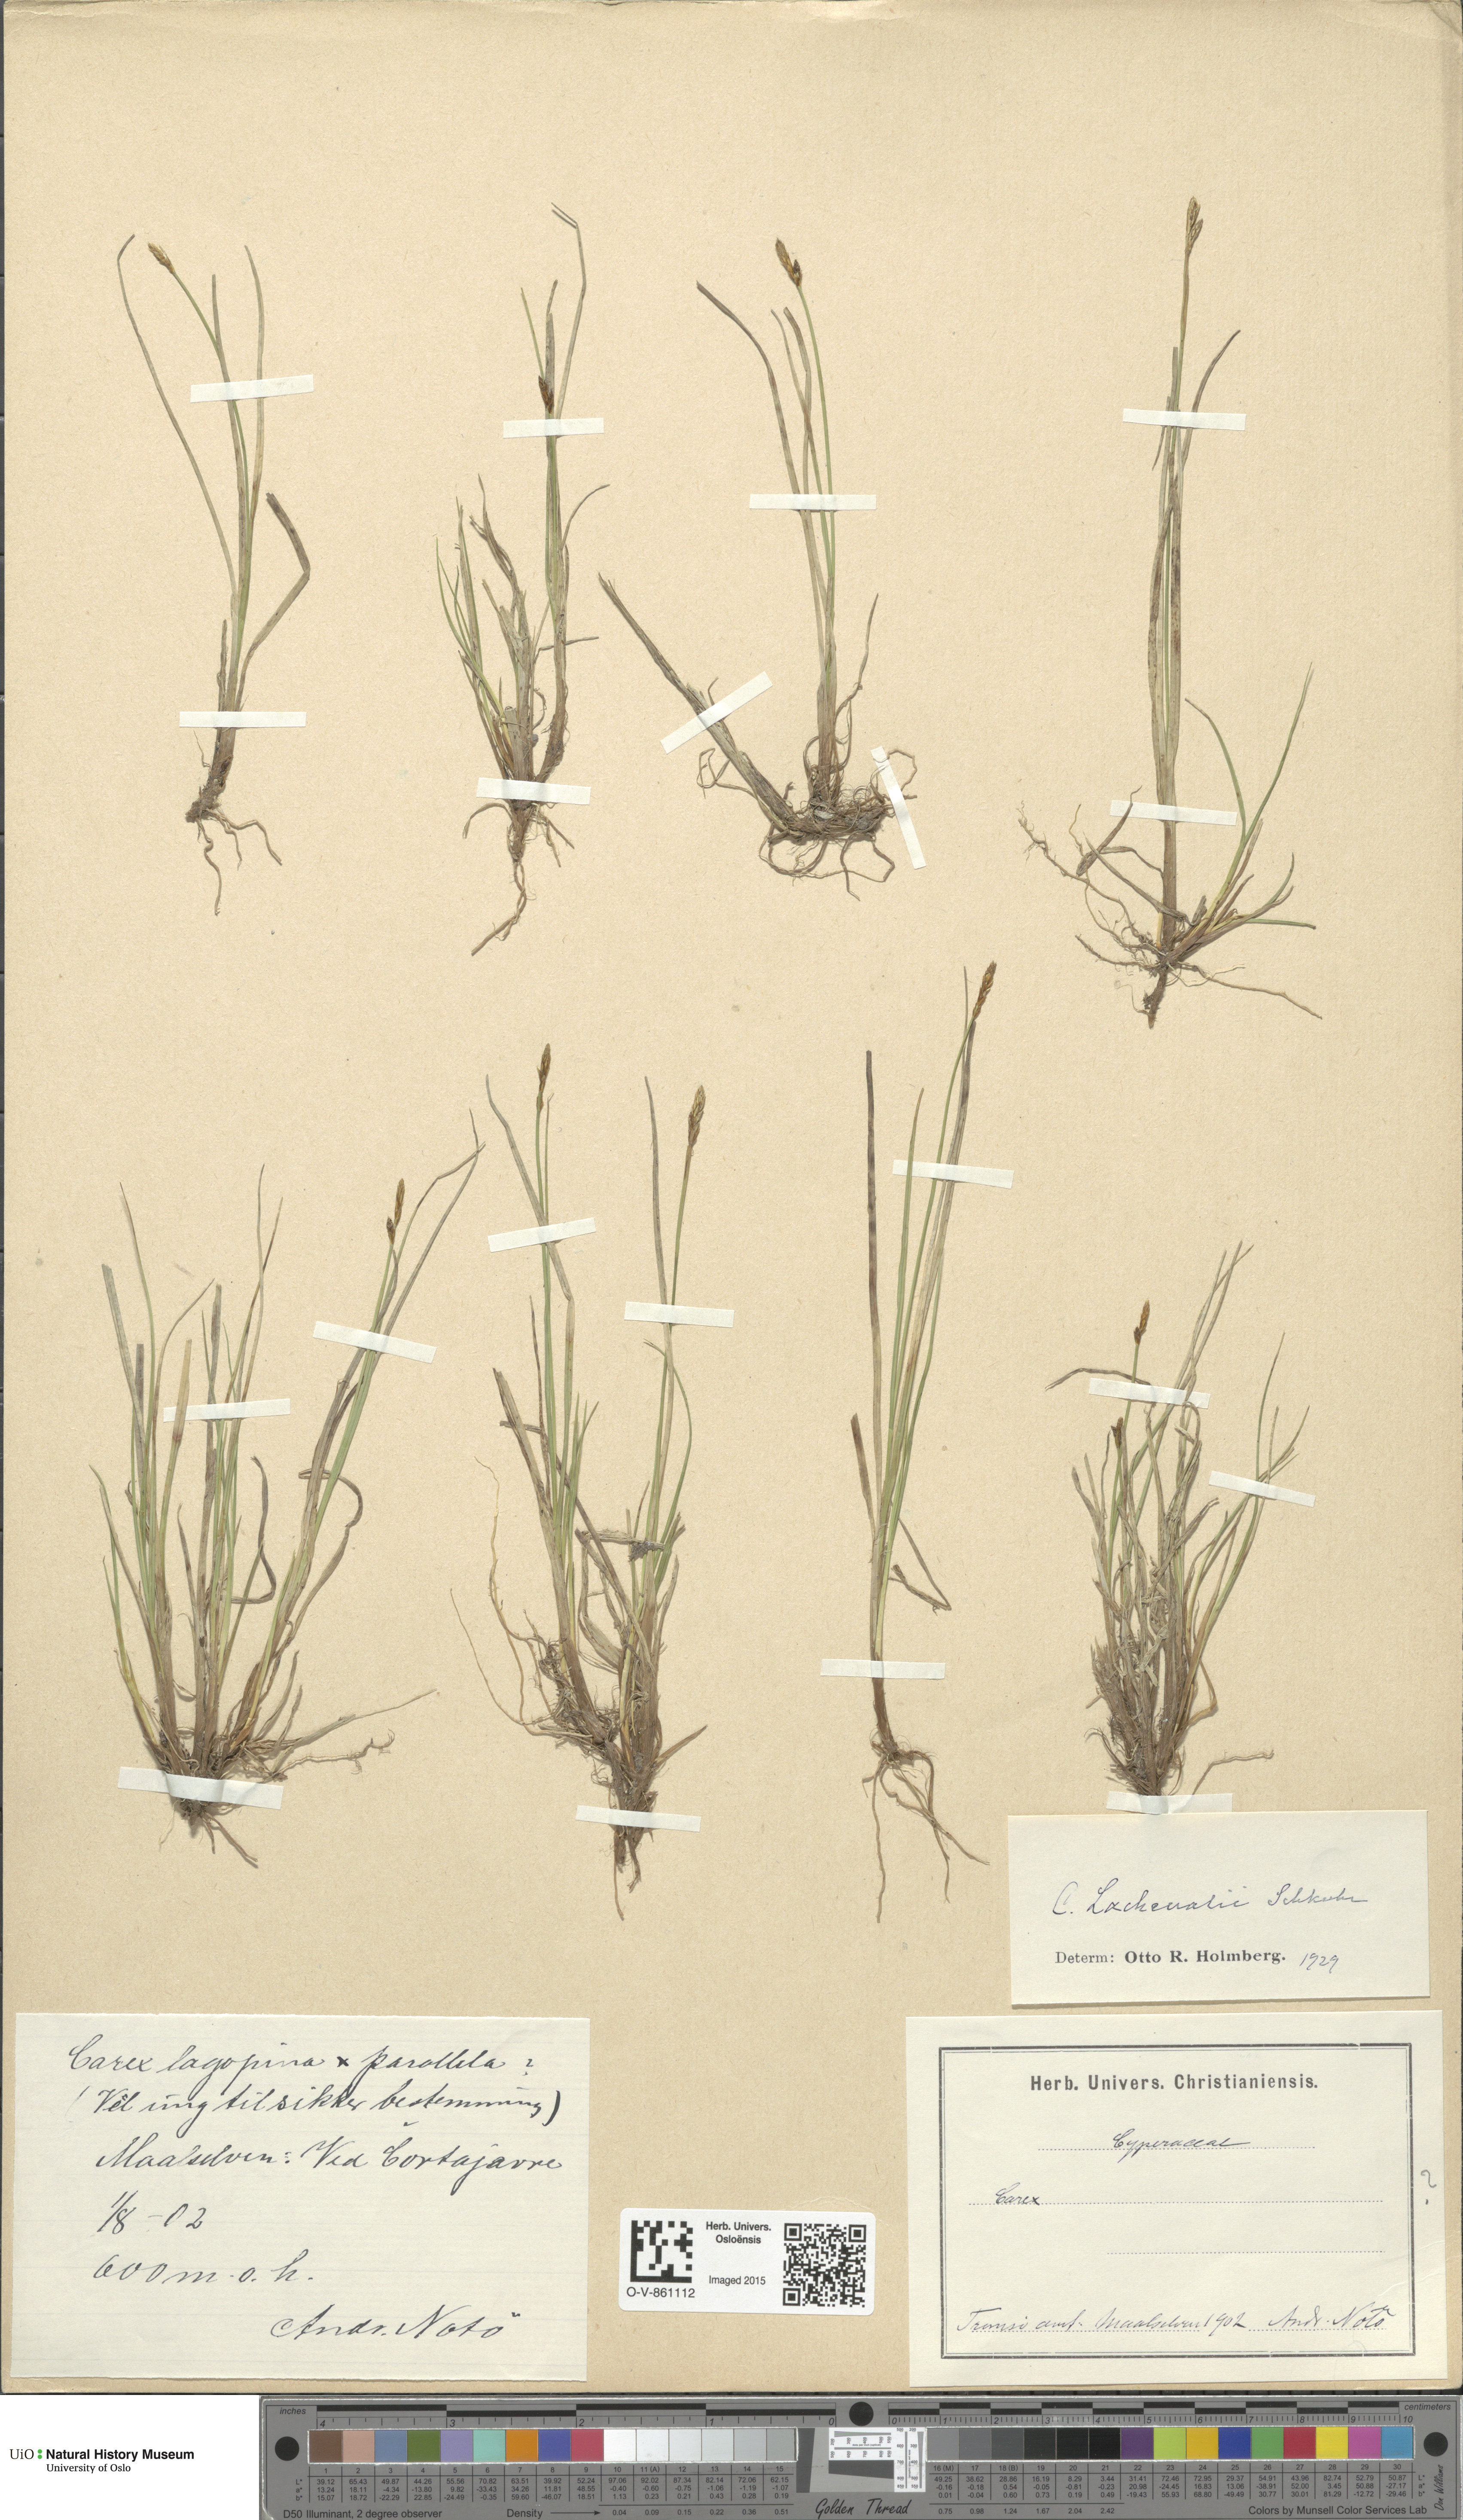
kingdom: Plantae
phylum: Tracheophyta
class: Liliopsida
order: Poales
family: Cyperaceae
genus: Carex
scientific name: Carex lachenalii
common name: Hare's-foot sedge
